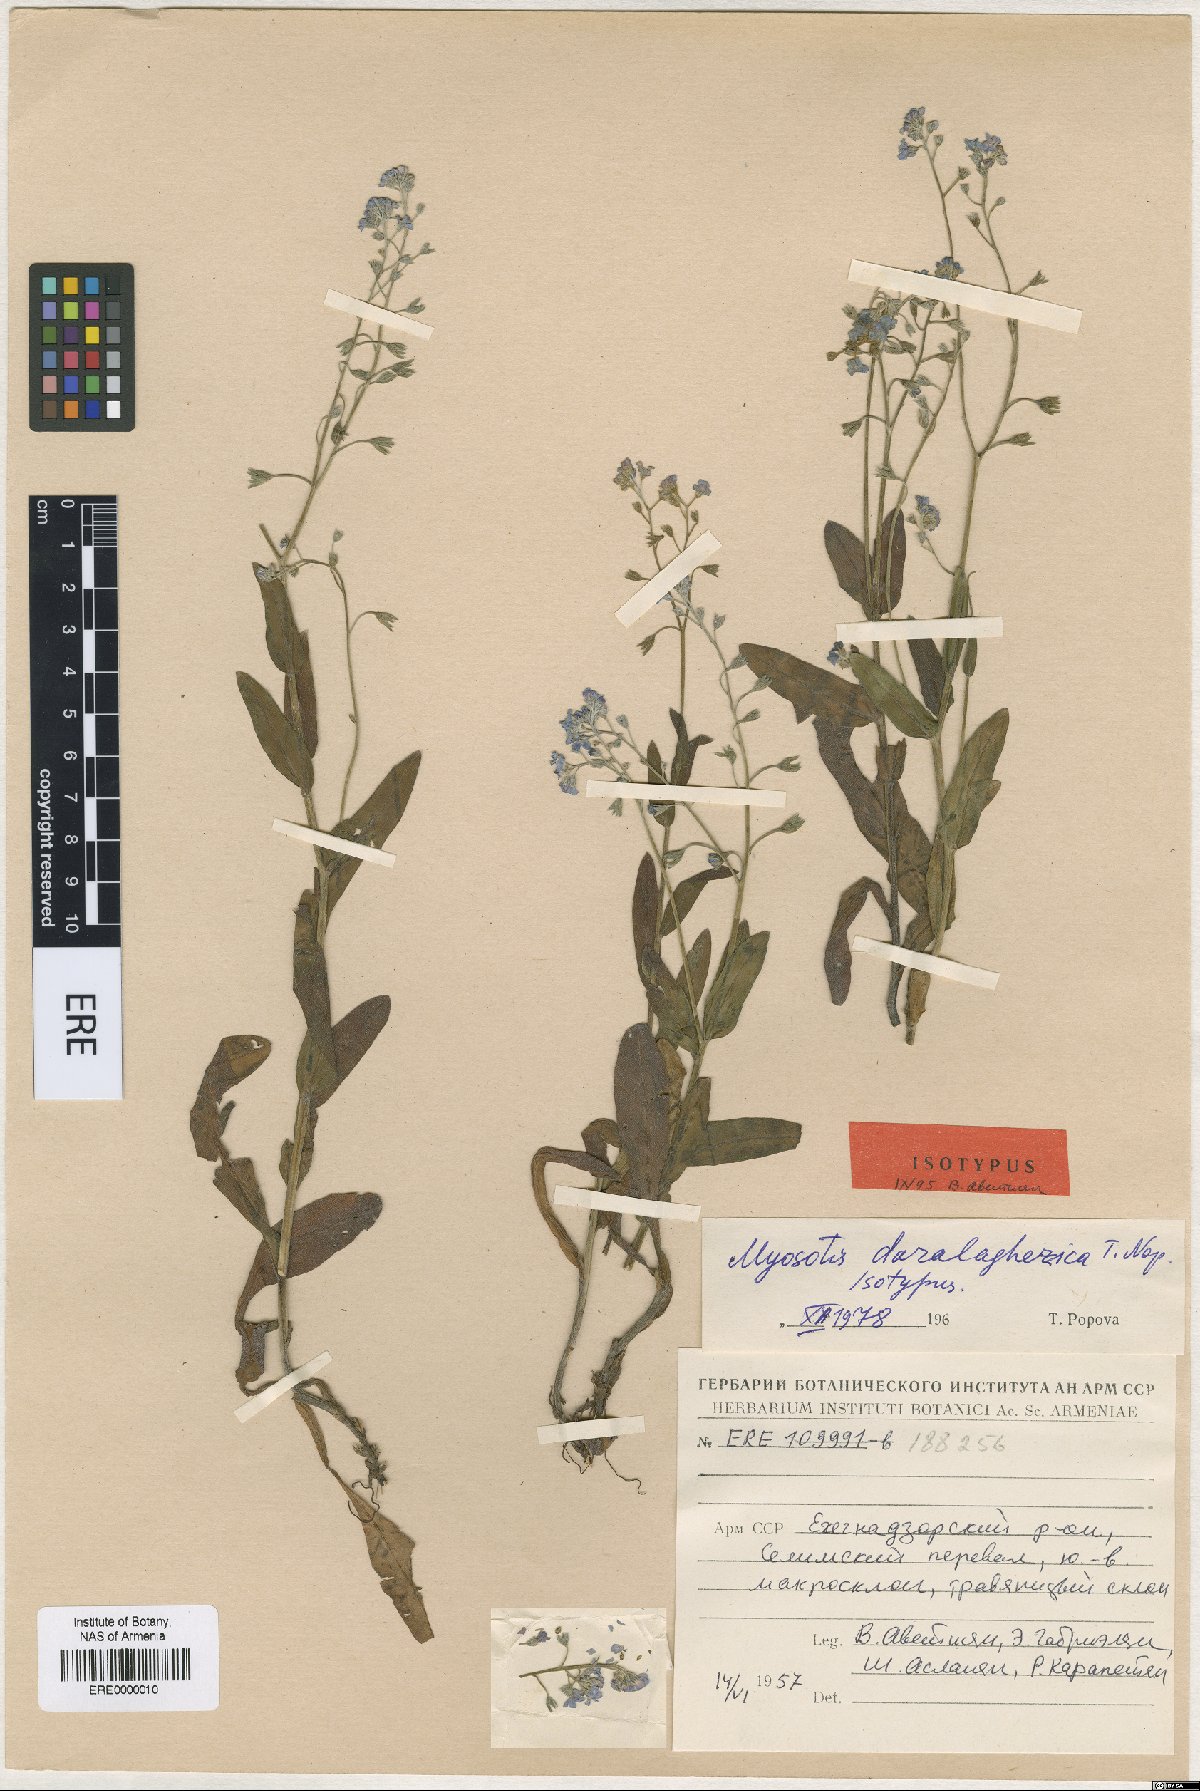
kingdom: Plantae
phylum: Tracheophyta
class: Magnoliopsida
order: Boraginales
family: Boraginaceae
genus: Myosotis
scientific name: Myosotis daralaghezica
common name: Daralagezian forget-me-not
